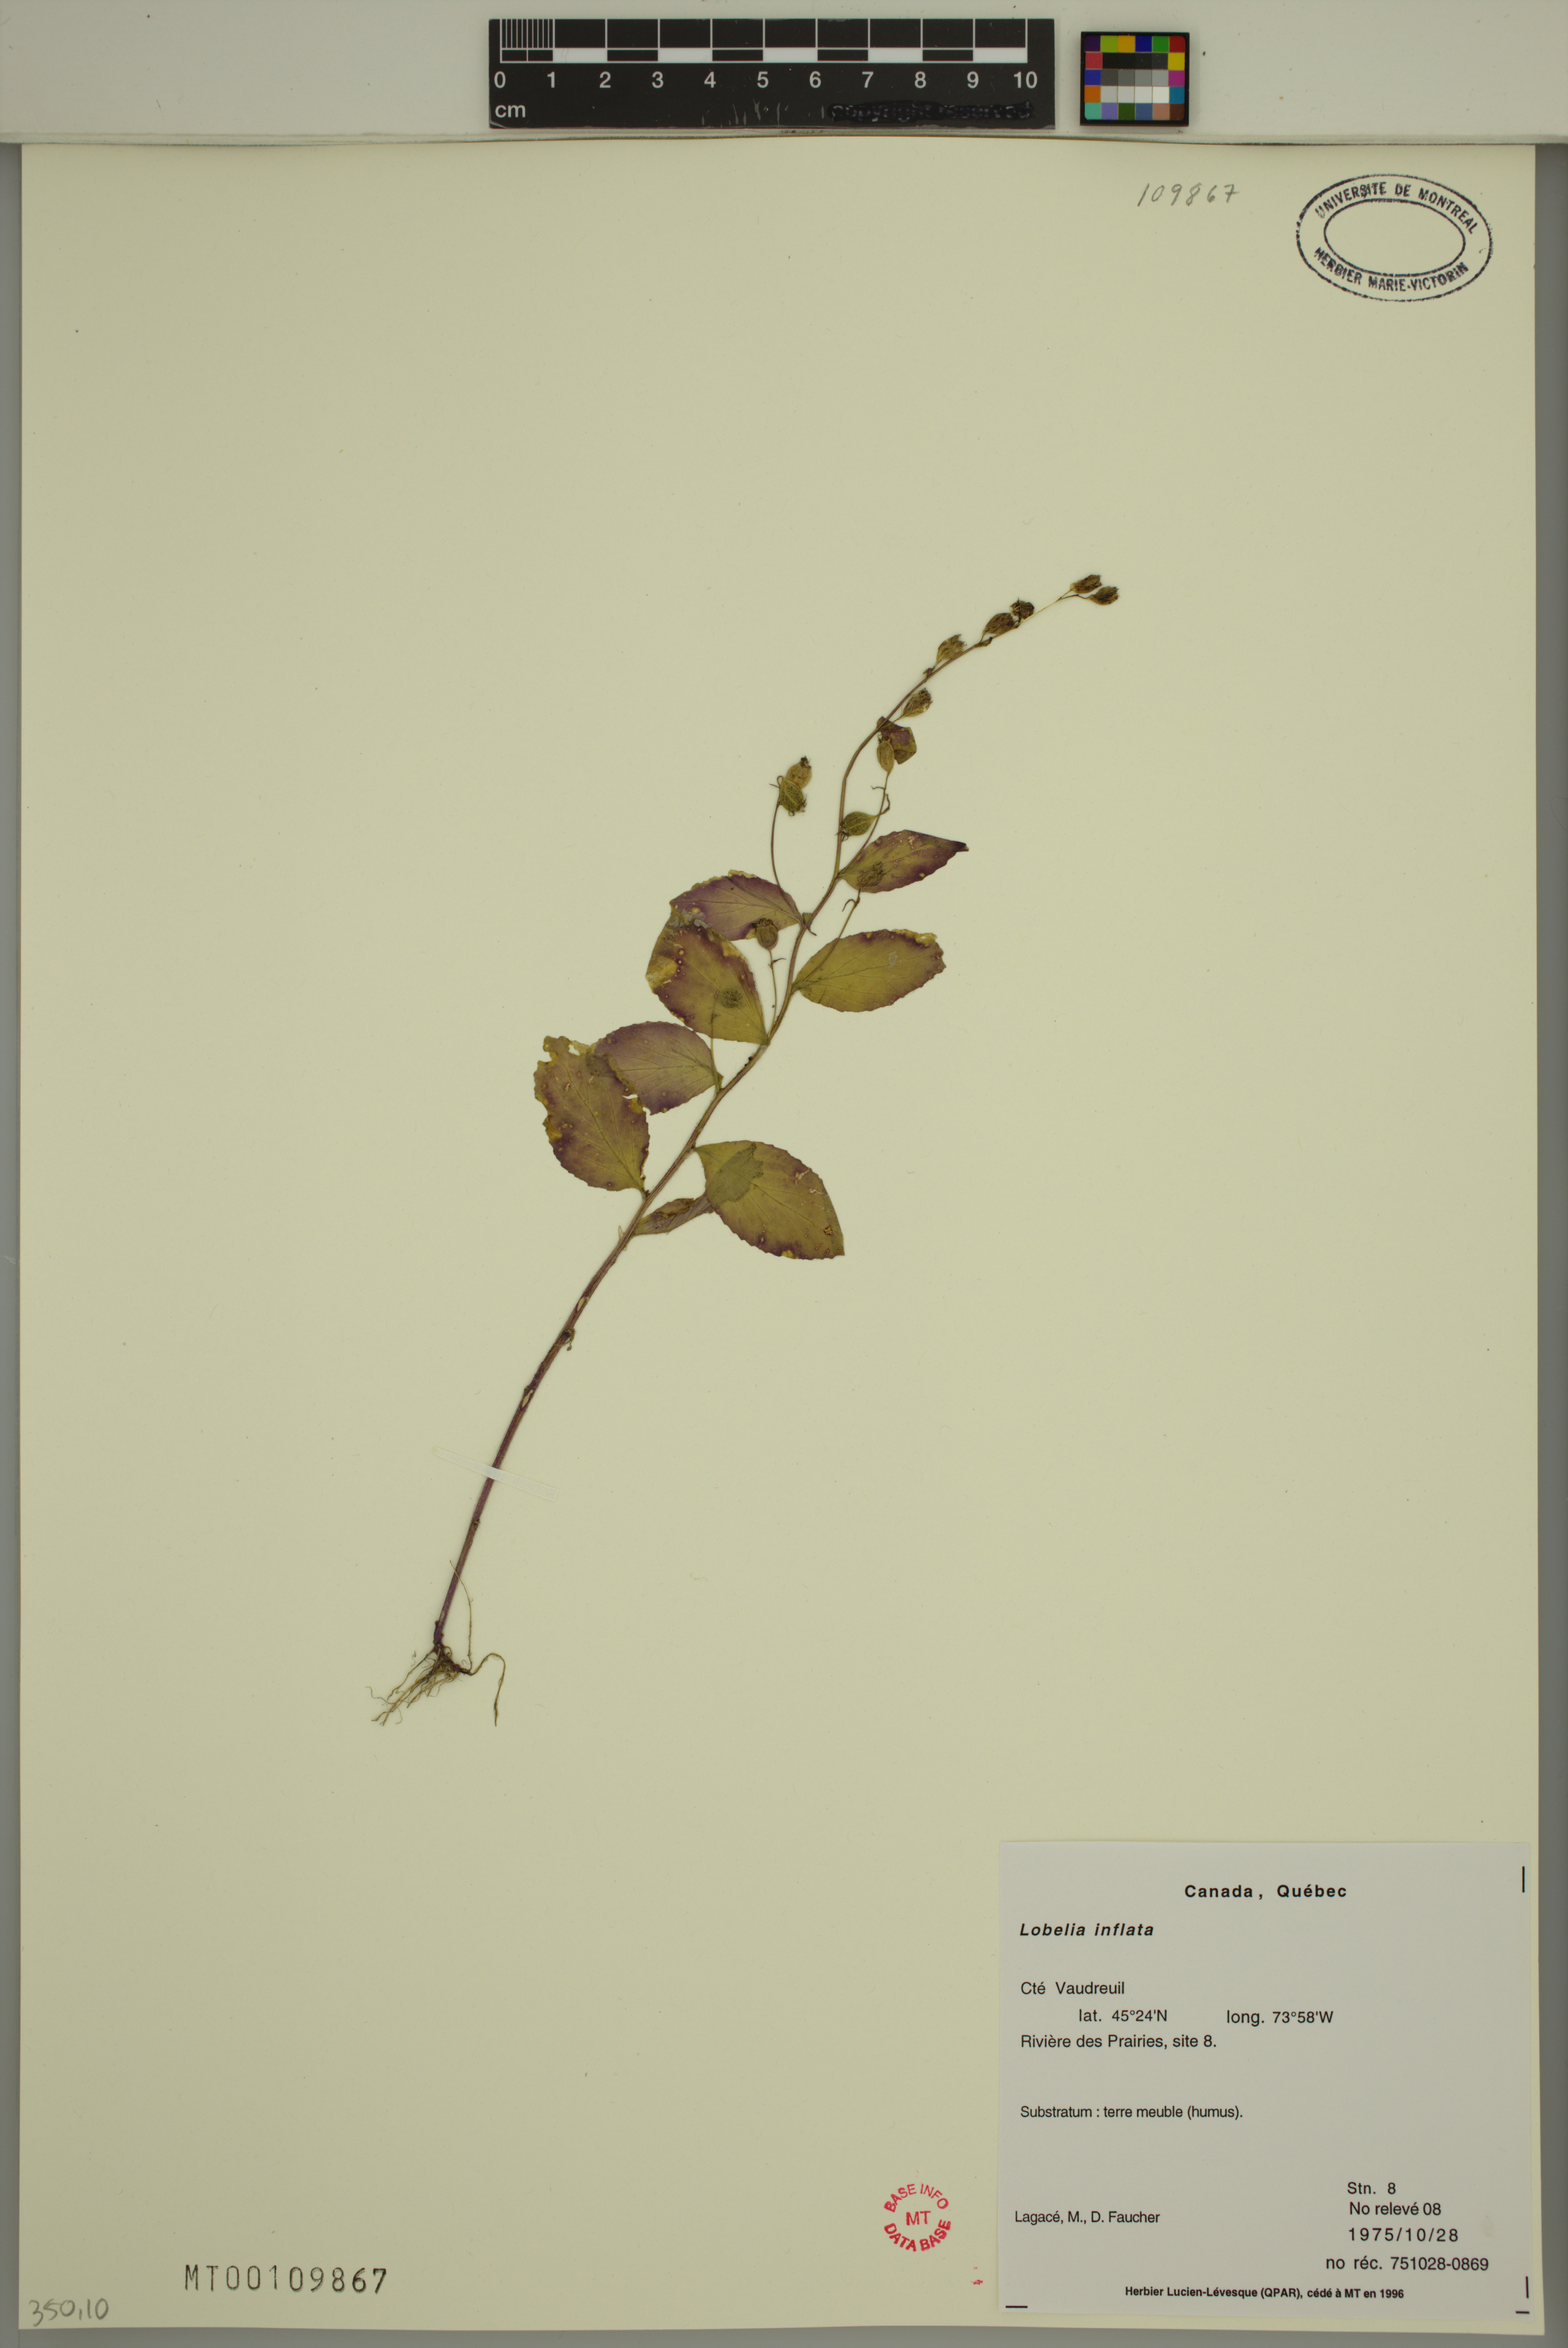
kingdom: Plantae
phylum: Tracheophyta
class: Magnoliopsida
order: Asterales
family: Campanulaceae
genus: Lobelia
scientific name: Lobelia inflata
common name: Indian tobacco
